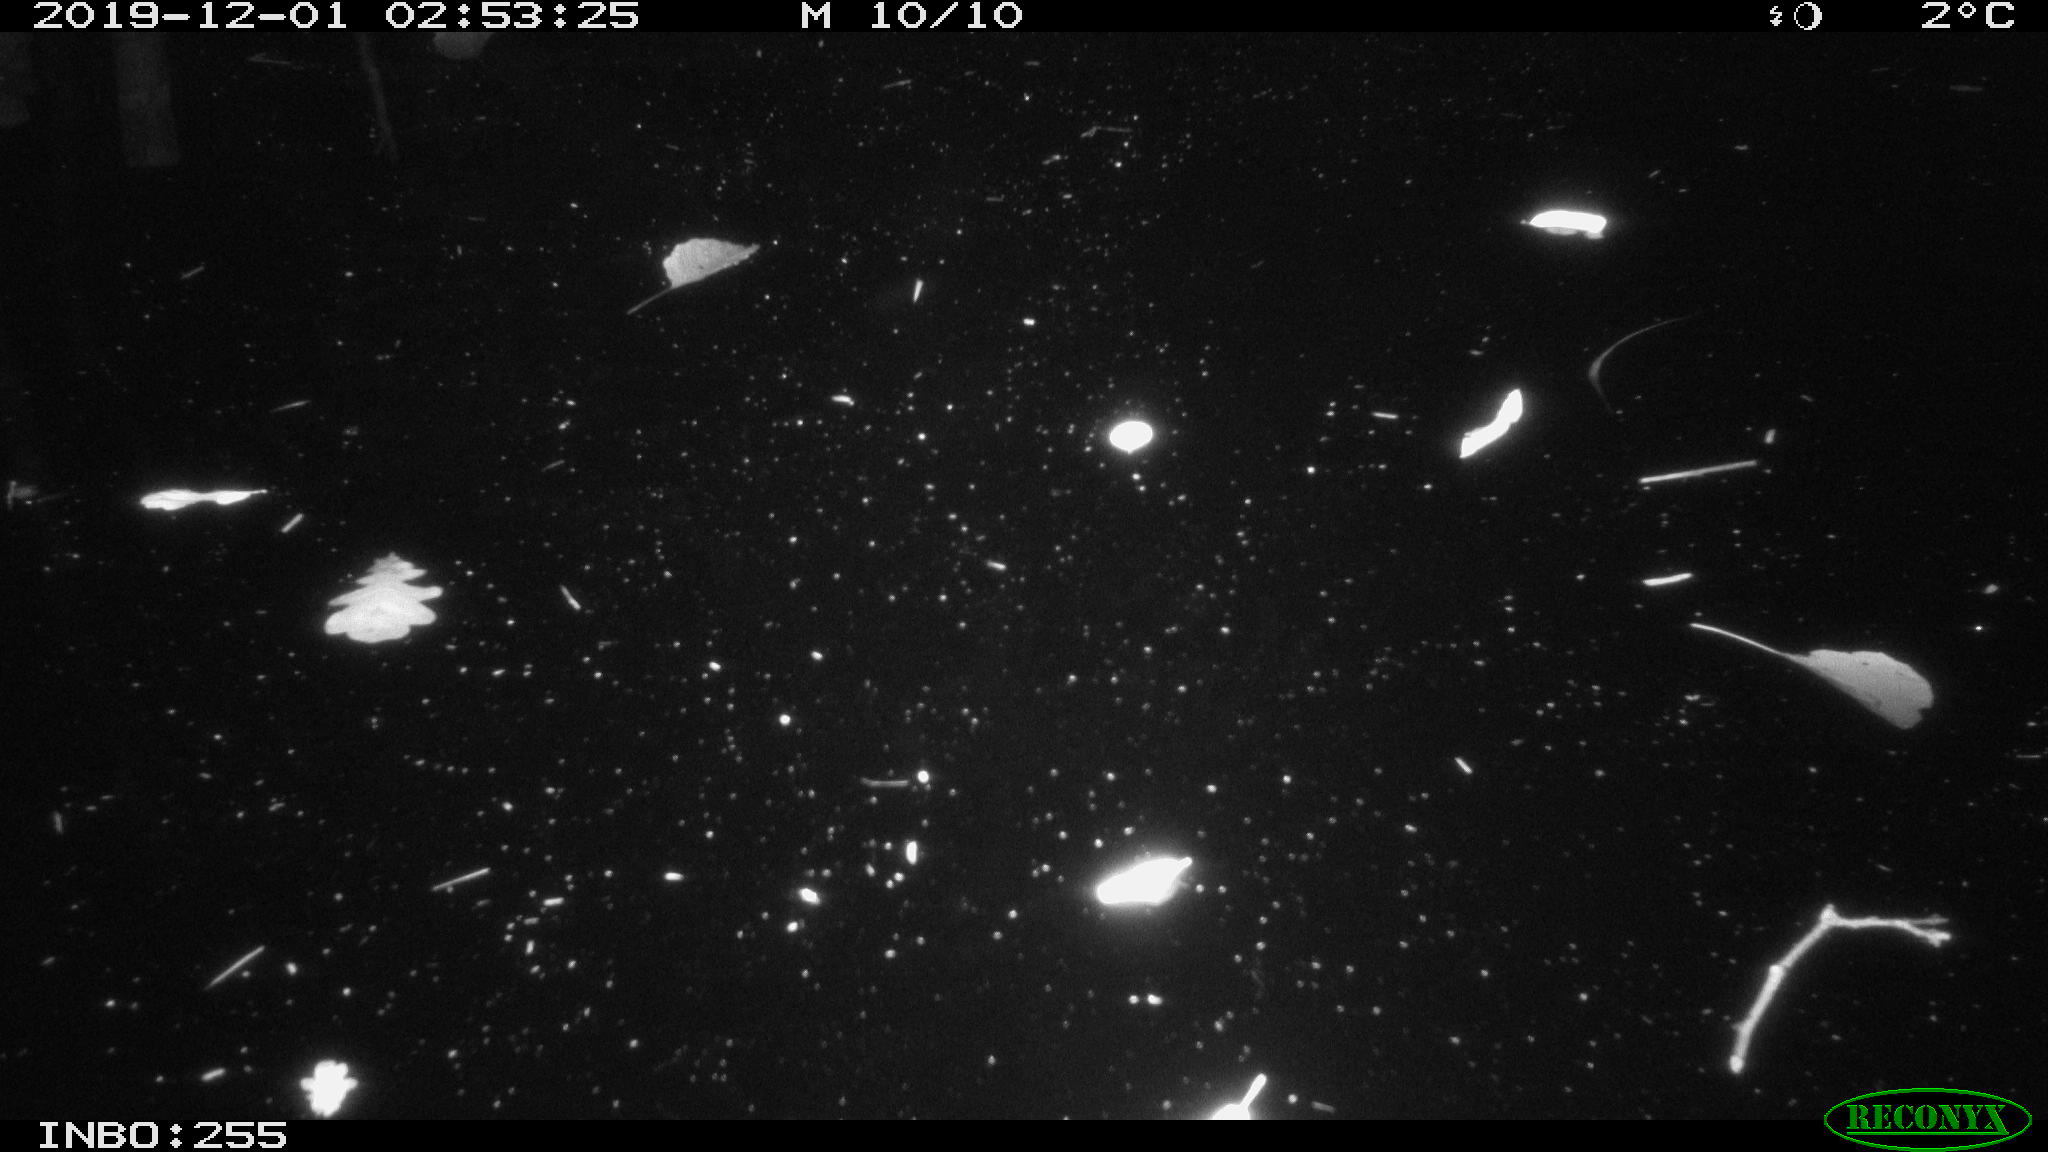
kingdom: Animalia
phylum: Chordata
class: Aves
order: Anseriformes
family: Anatidae
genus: Anas
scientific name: Anas platyrhynchos
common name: Mallard
